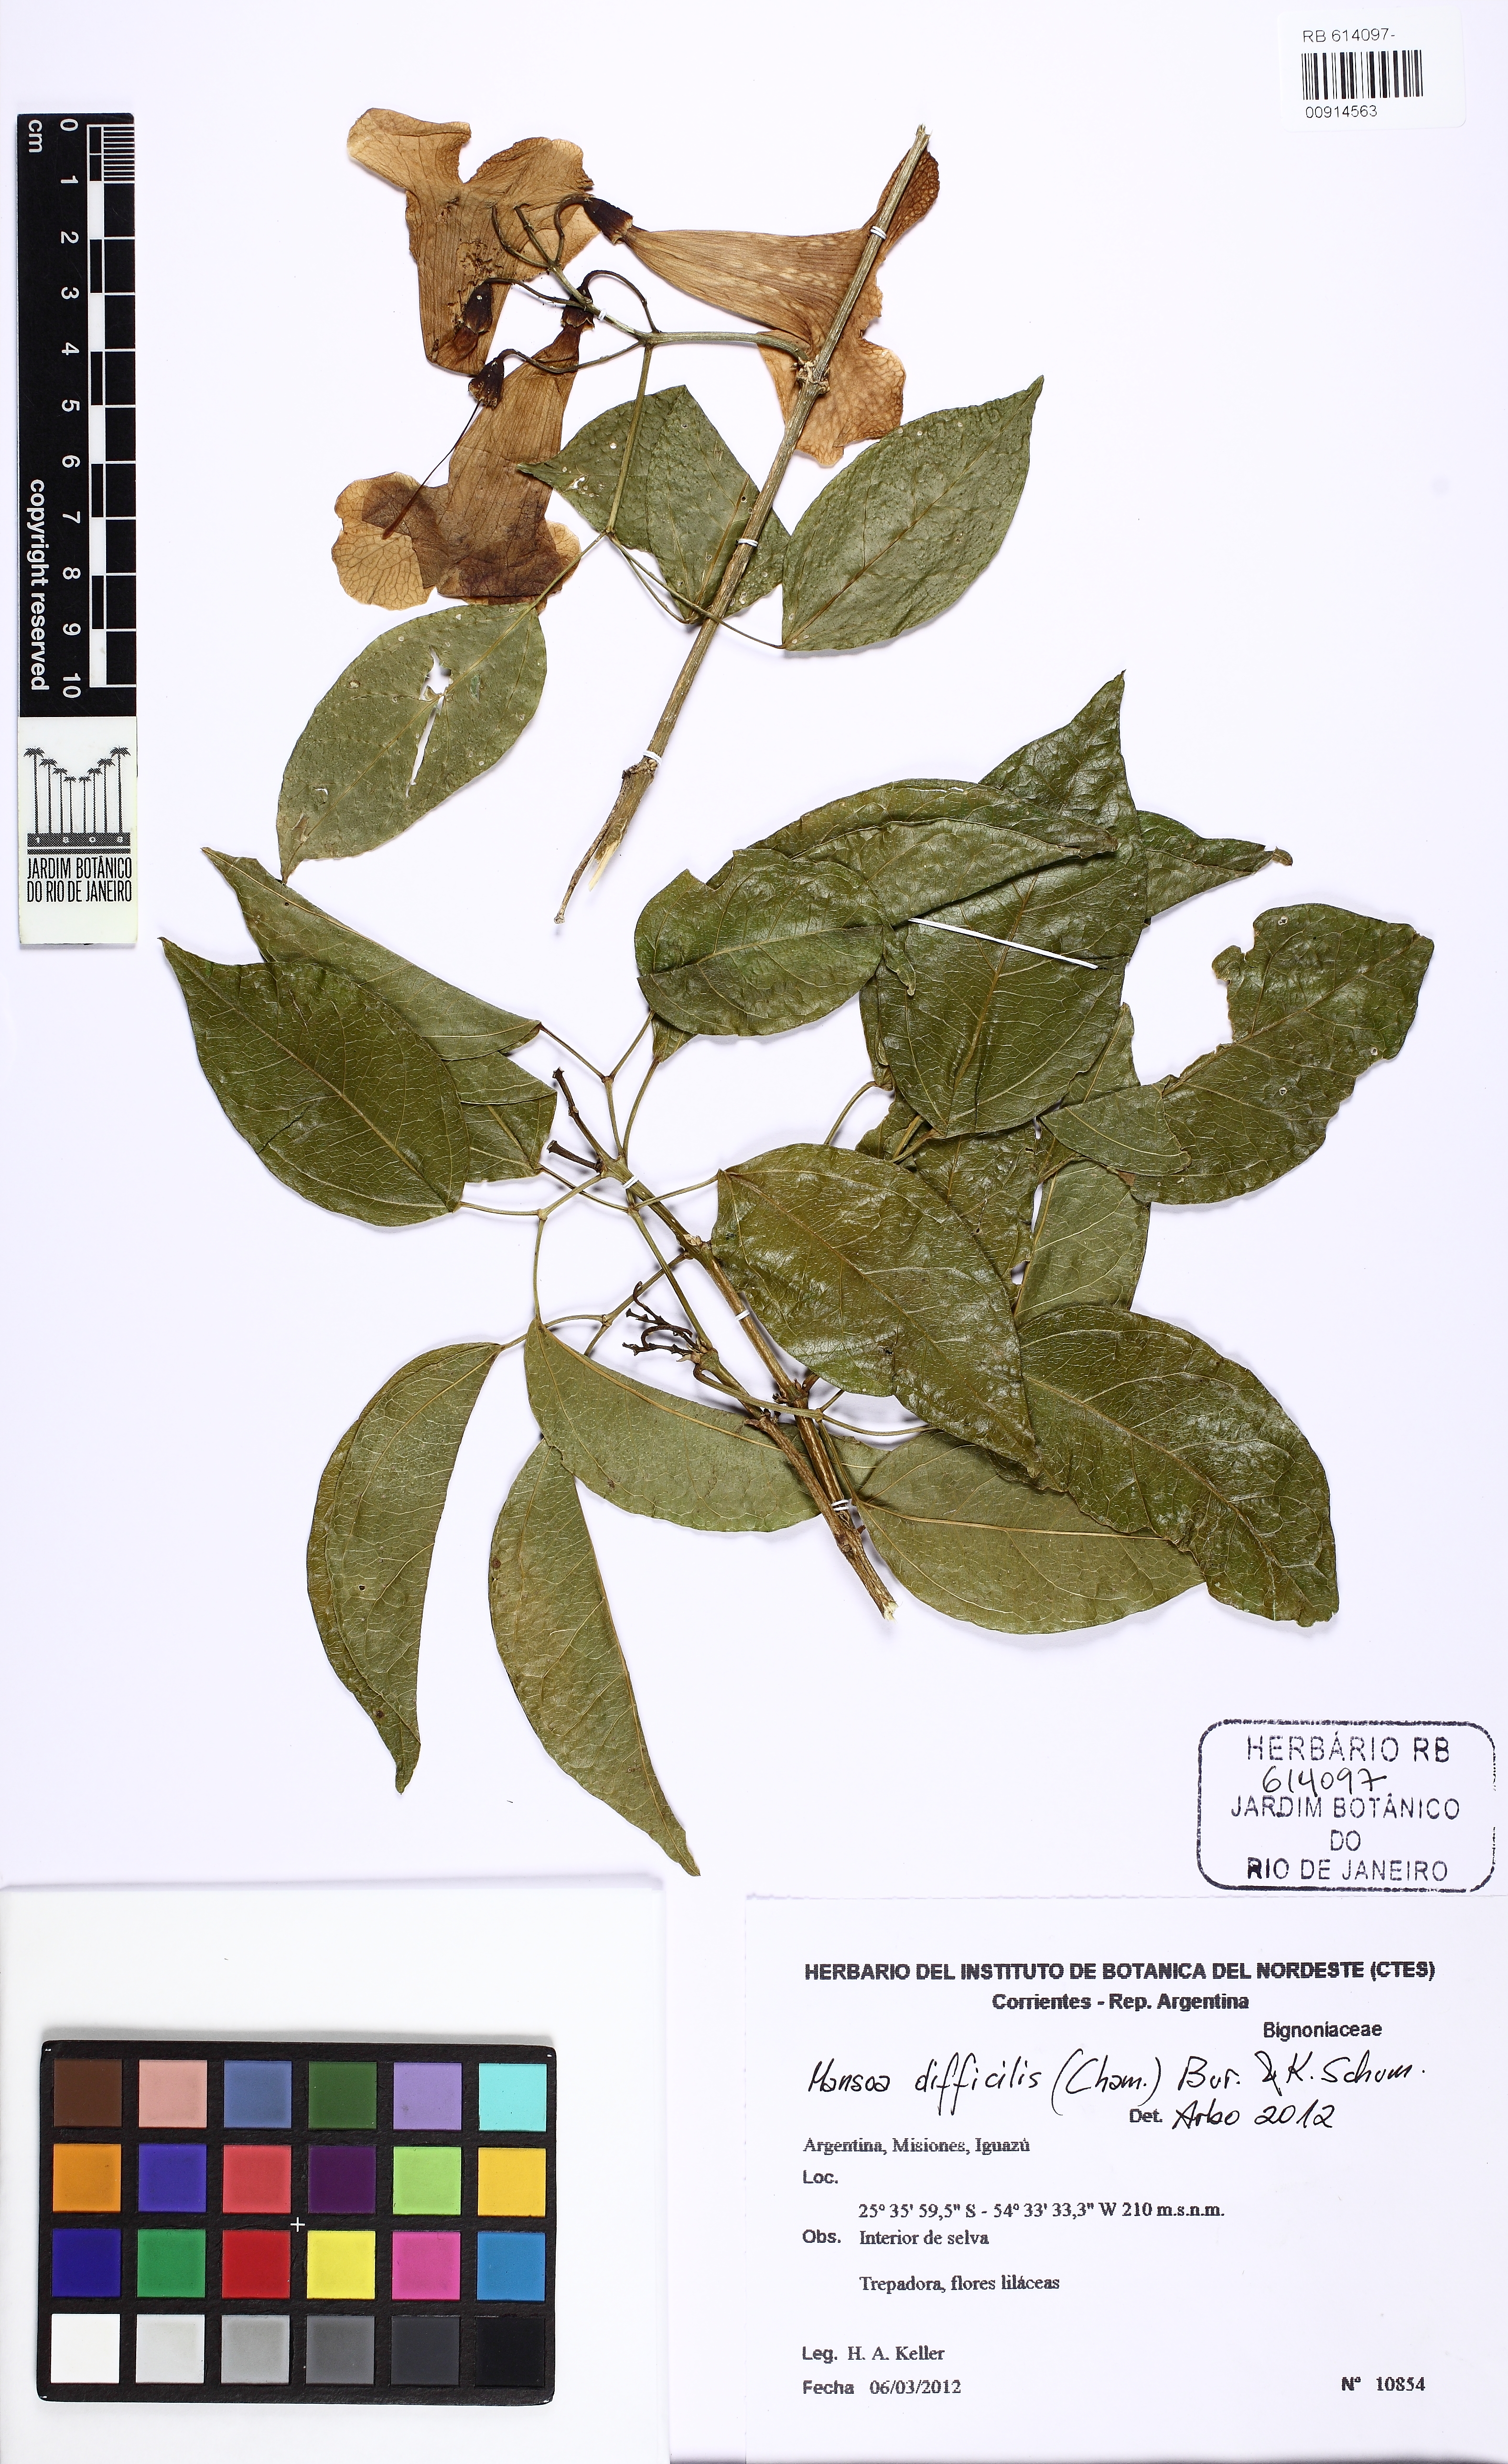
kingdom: Plantae
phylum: Tracheophyta
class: Magnoliopsida
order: Lamiales
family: Bignoniaceae
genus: Mansoa
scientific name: Mansoa difficilis
